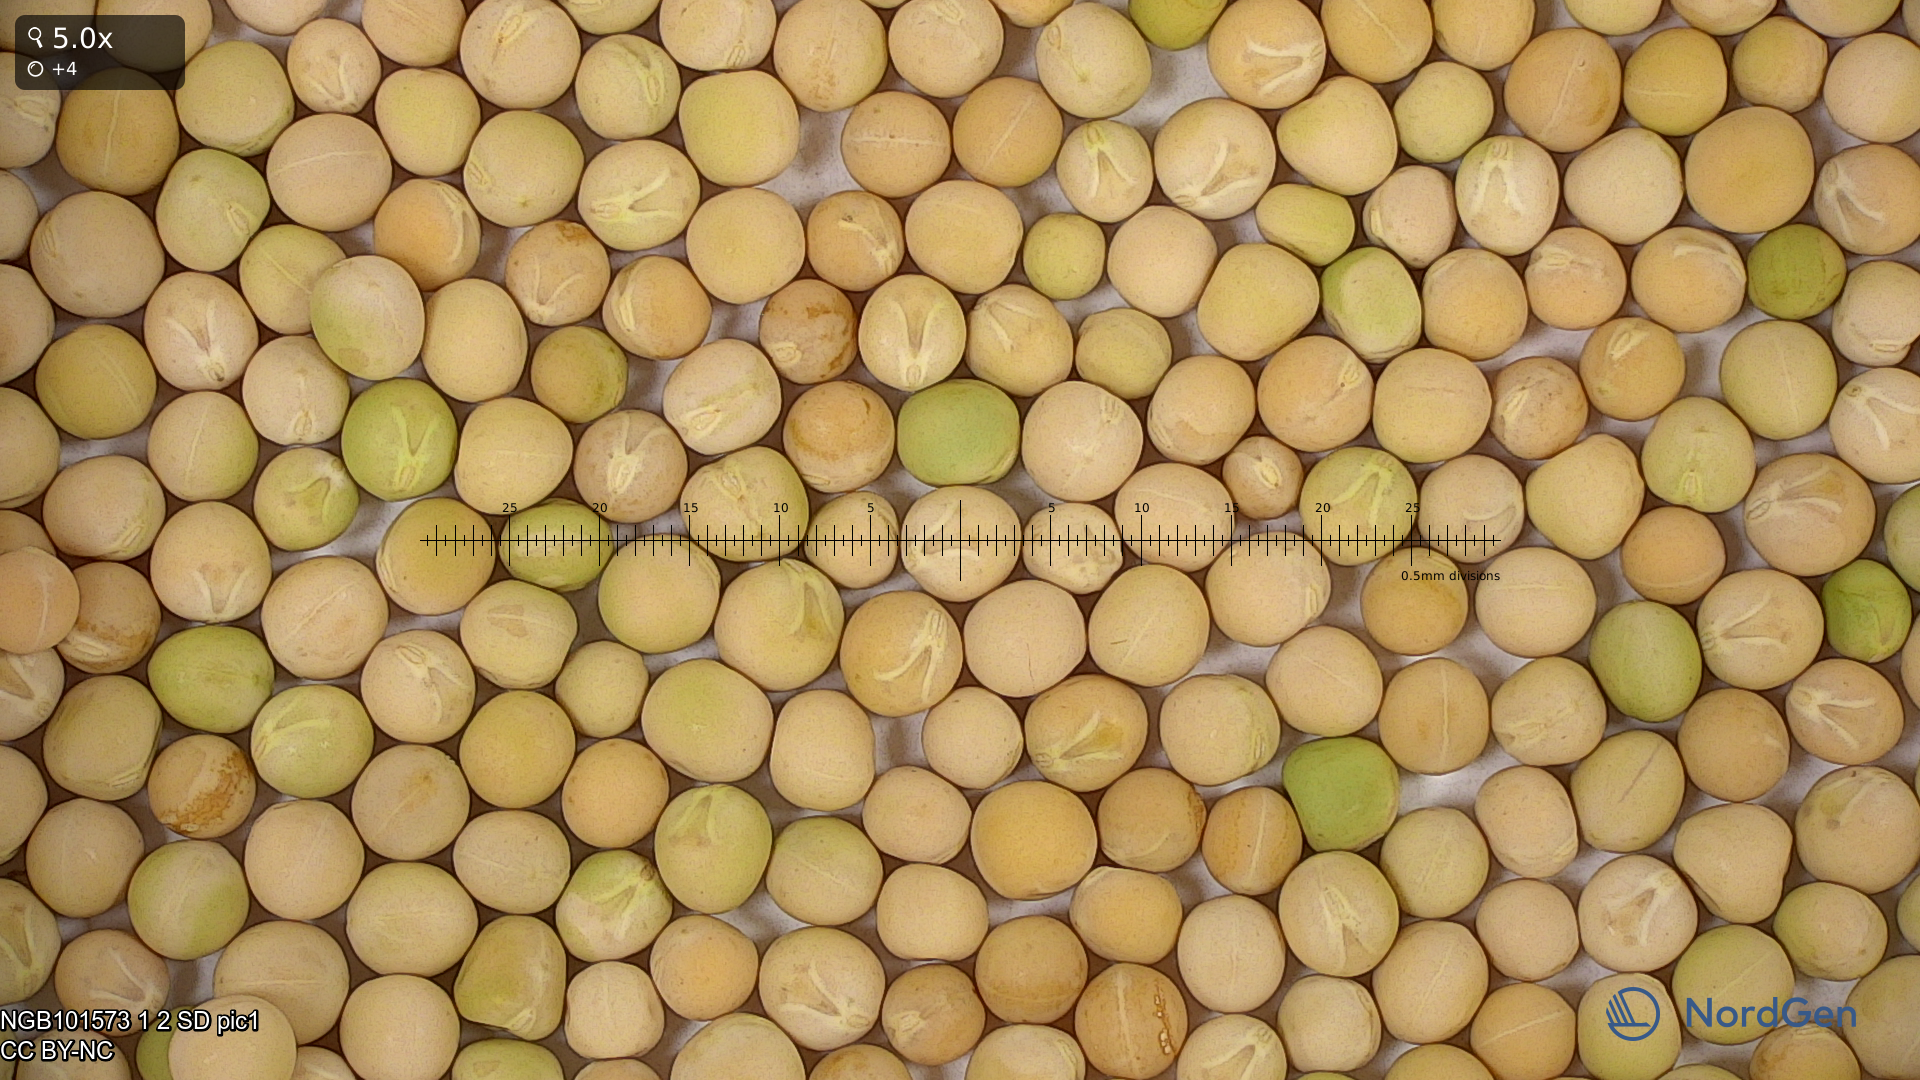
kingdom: Plantae
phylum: Tracheophyta
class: Magnoliopsida
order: Fabales
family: Fabaceae
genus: Lathyrus
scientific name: Lathyrus oleraceus
